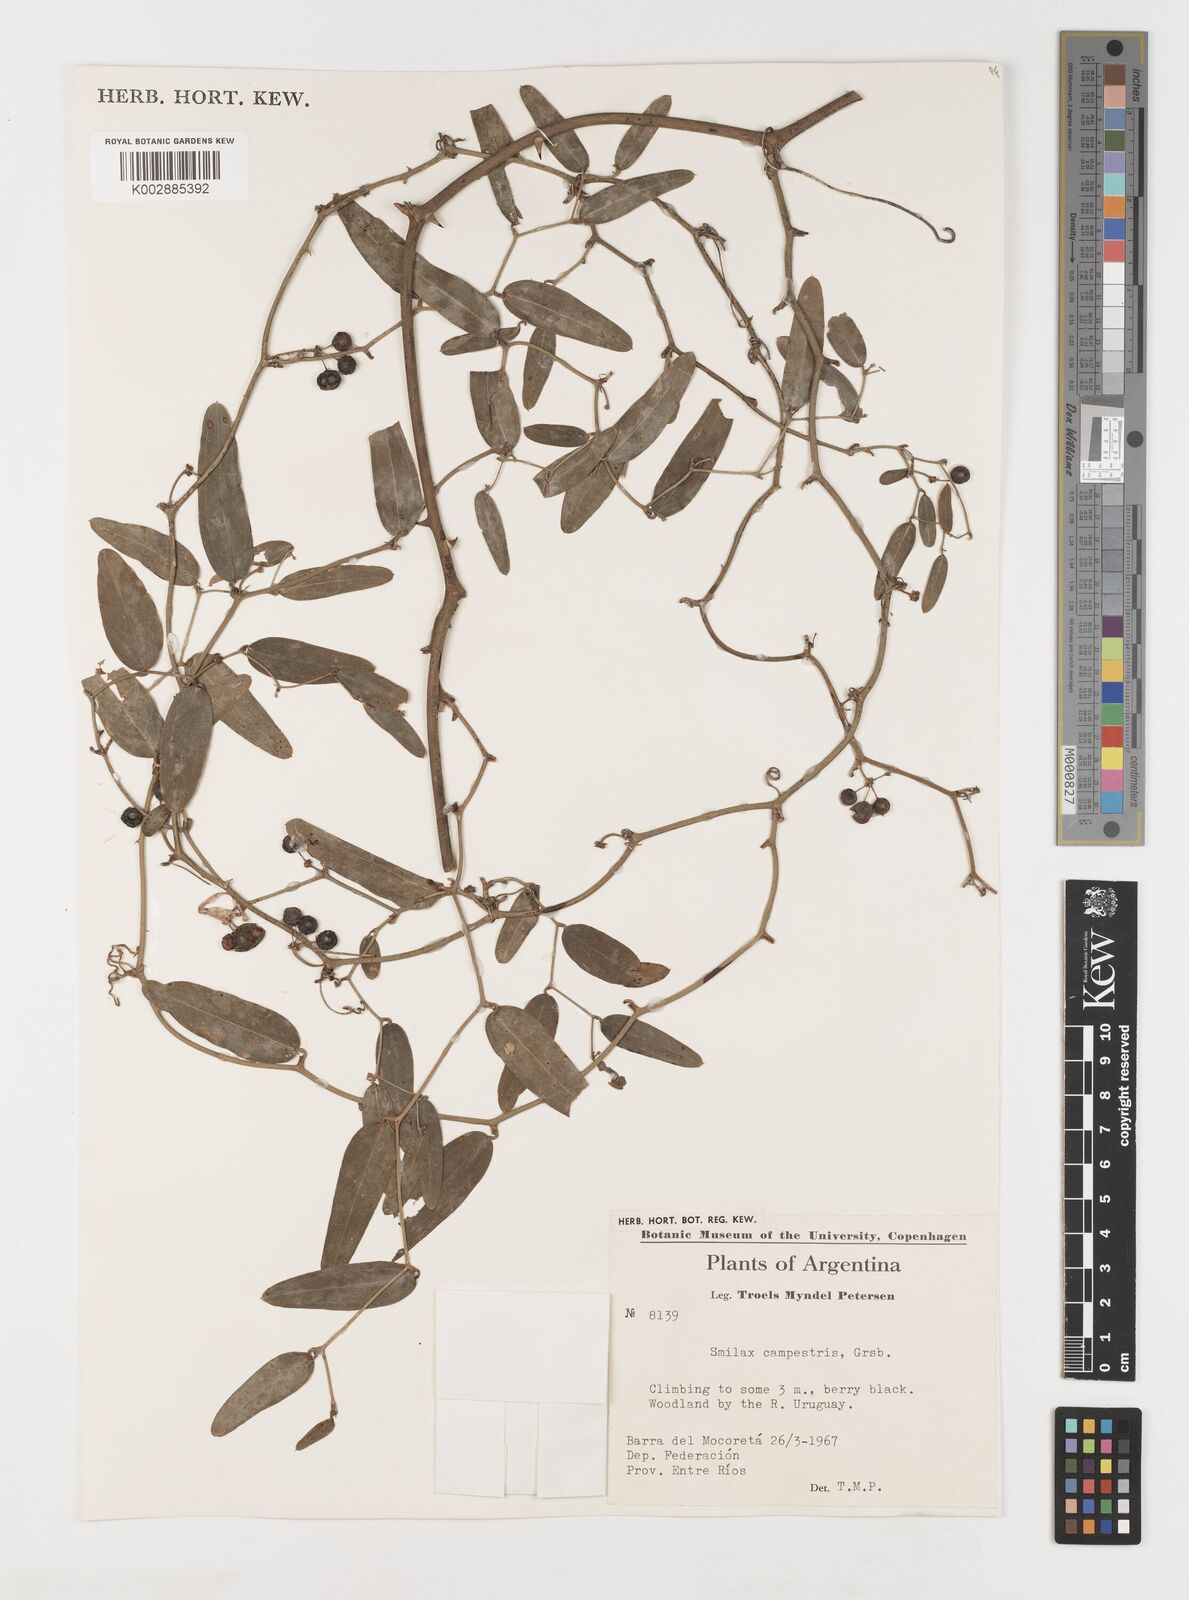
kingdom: Plantae
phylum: Tracheophyta
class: Liliopsida
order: Liliales
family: Smilacaceae
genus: Smilax
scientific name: Smilax campestris
